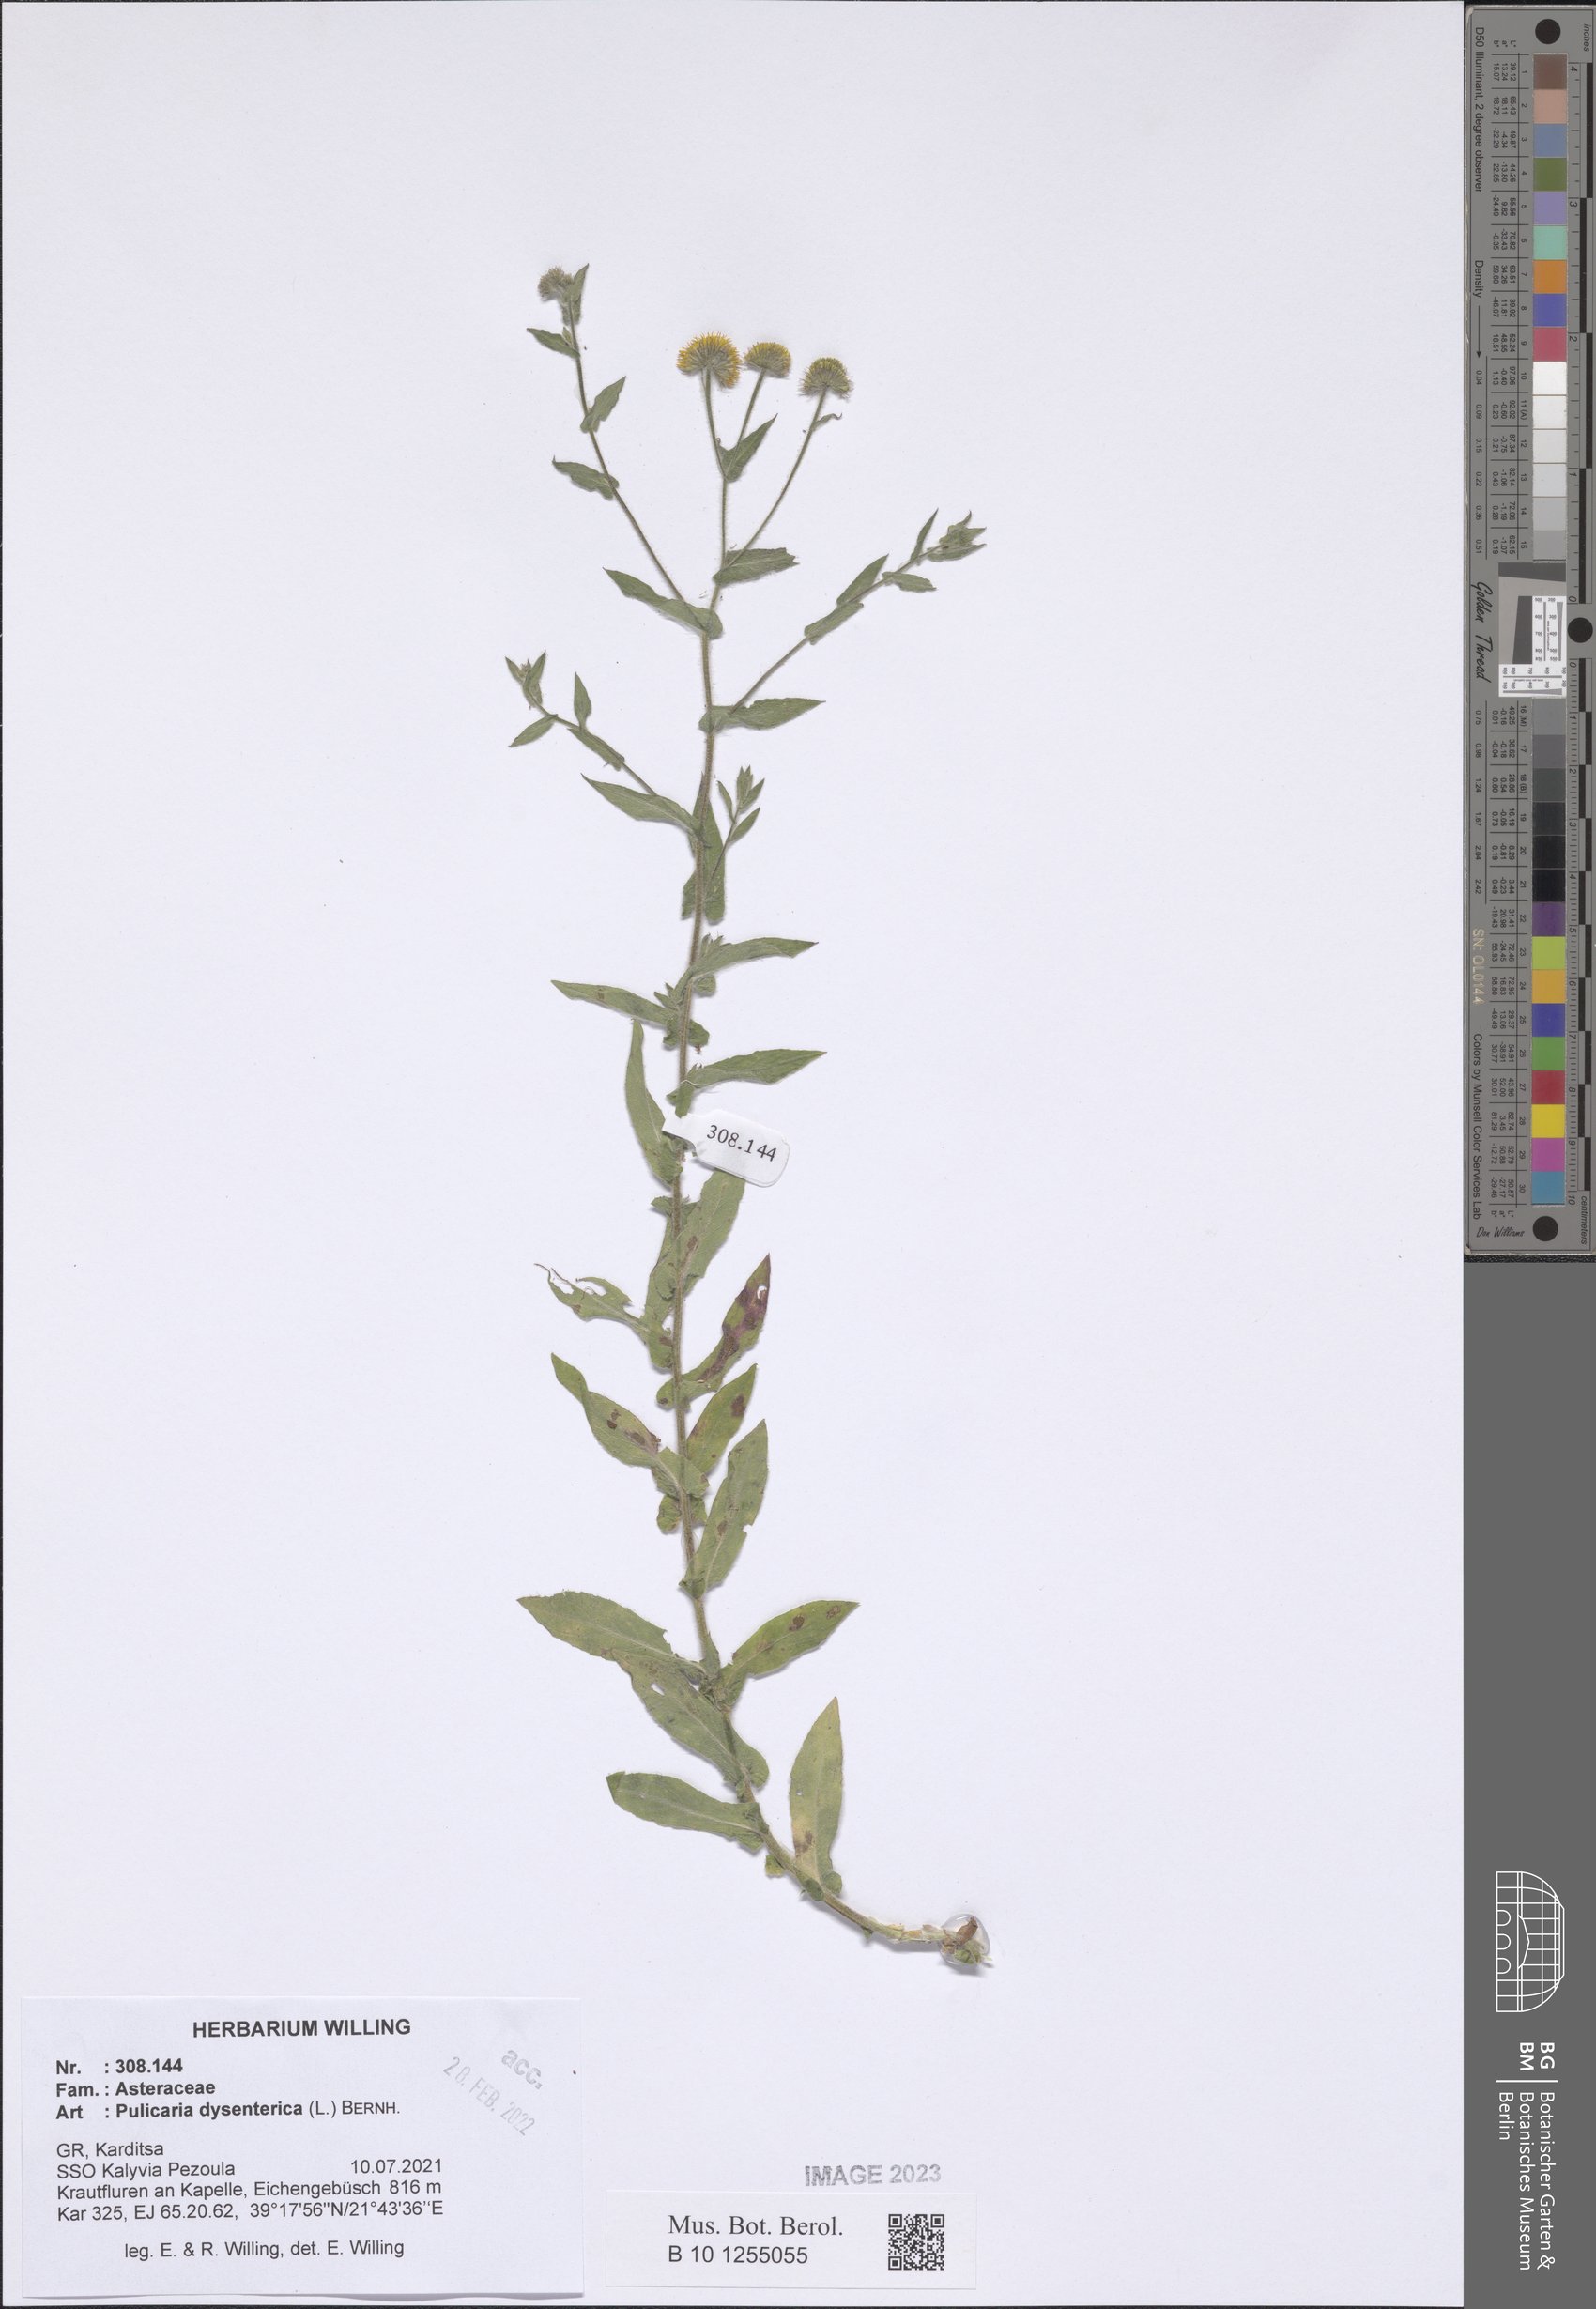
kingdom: Plantae
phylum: Tracheophyta
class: Magnoliopsida
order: Asterales
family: Asteraceae
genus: Pulicaria
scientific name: Pulicaria dysenterica
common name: Common fleabane
